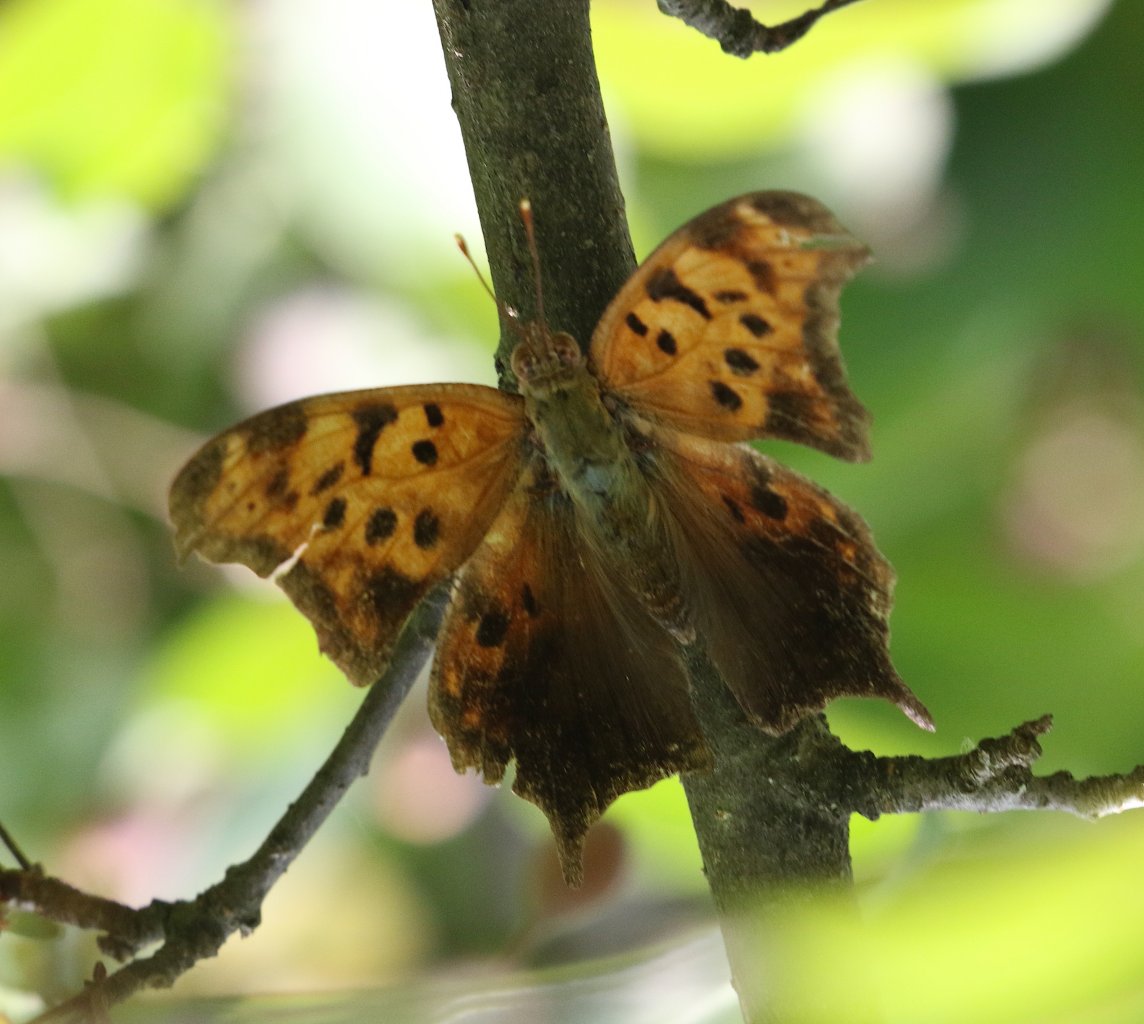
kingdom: Animalia
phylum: Arthropoda
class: Insecta
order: Lepidoptera
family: Nymphalidae
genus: Polygonia
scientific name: Polygonia interrogationis
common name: Question Mark
